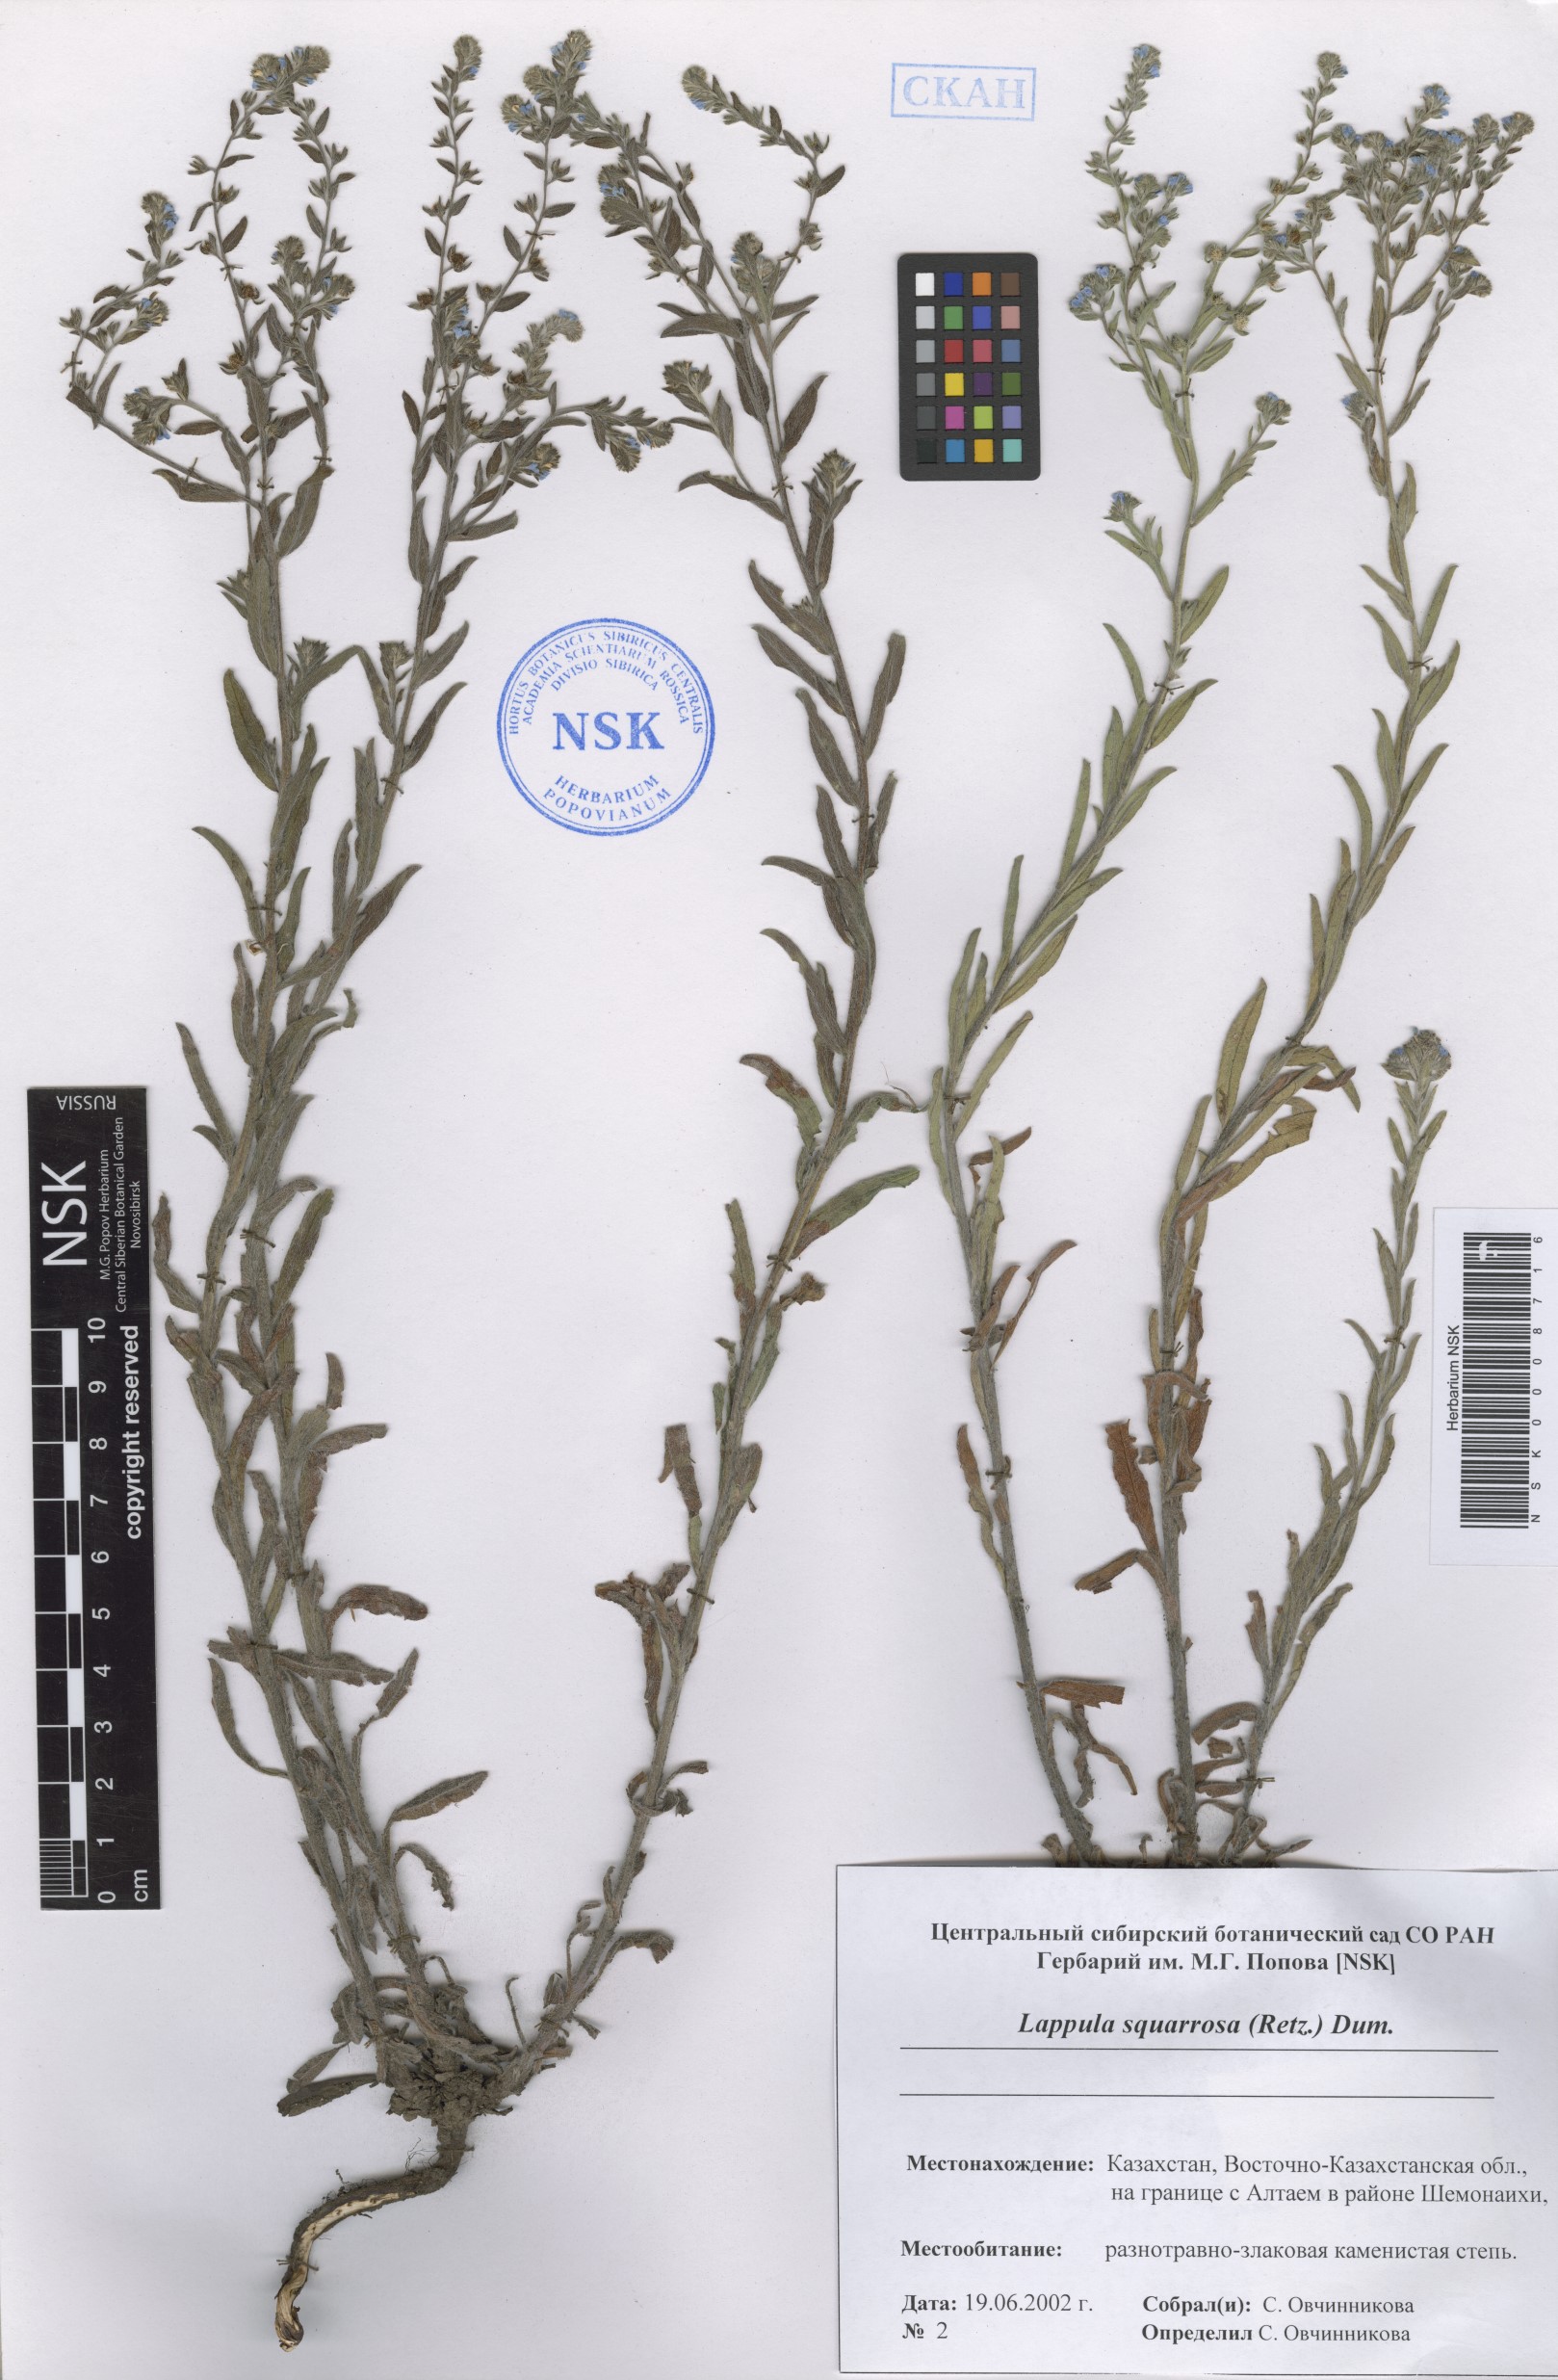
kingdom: Plantae
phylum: Tracheophyta
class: Magnoliopsida
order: Boraginales
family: Boraginaceae
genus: Lappula
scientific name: Lappula squarrosa
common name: European stickseed
